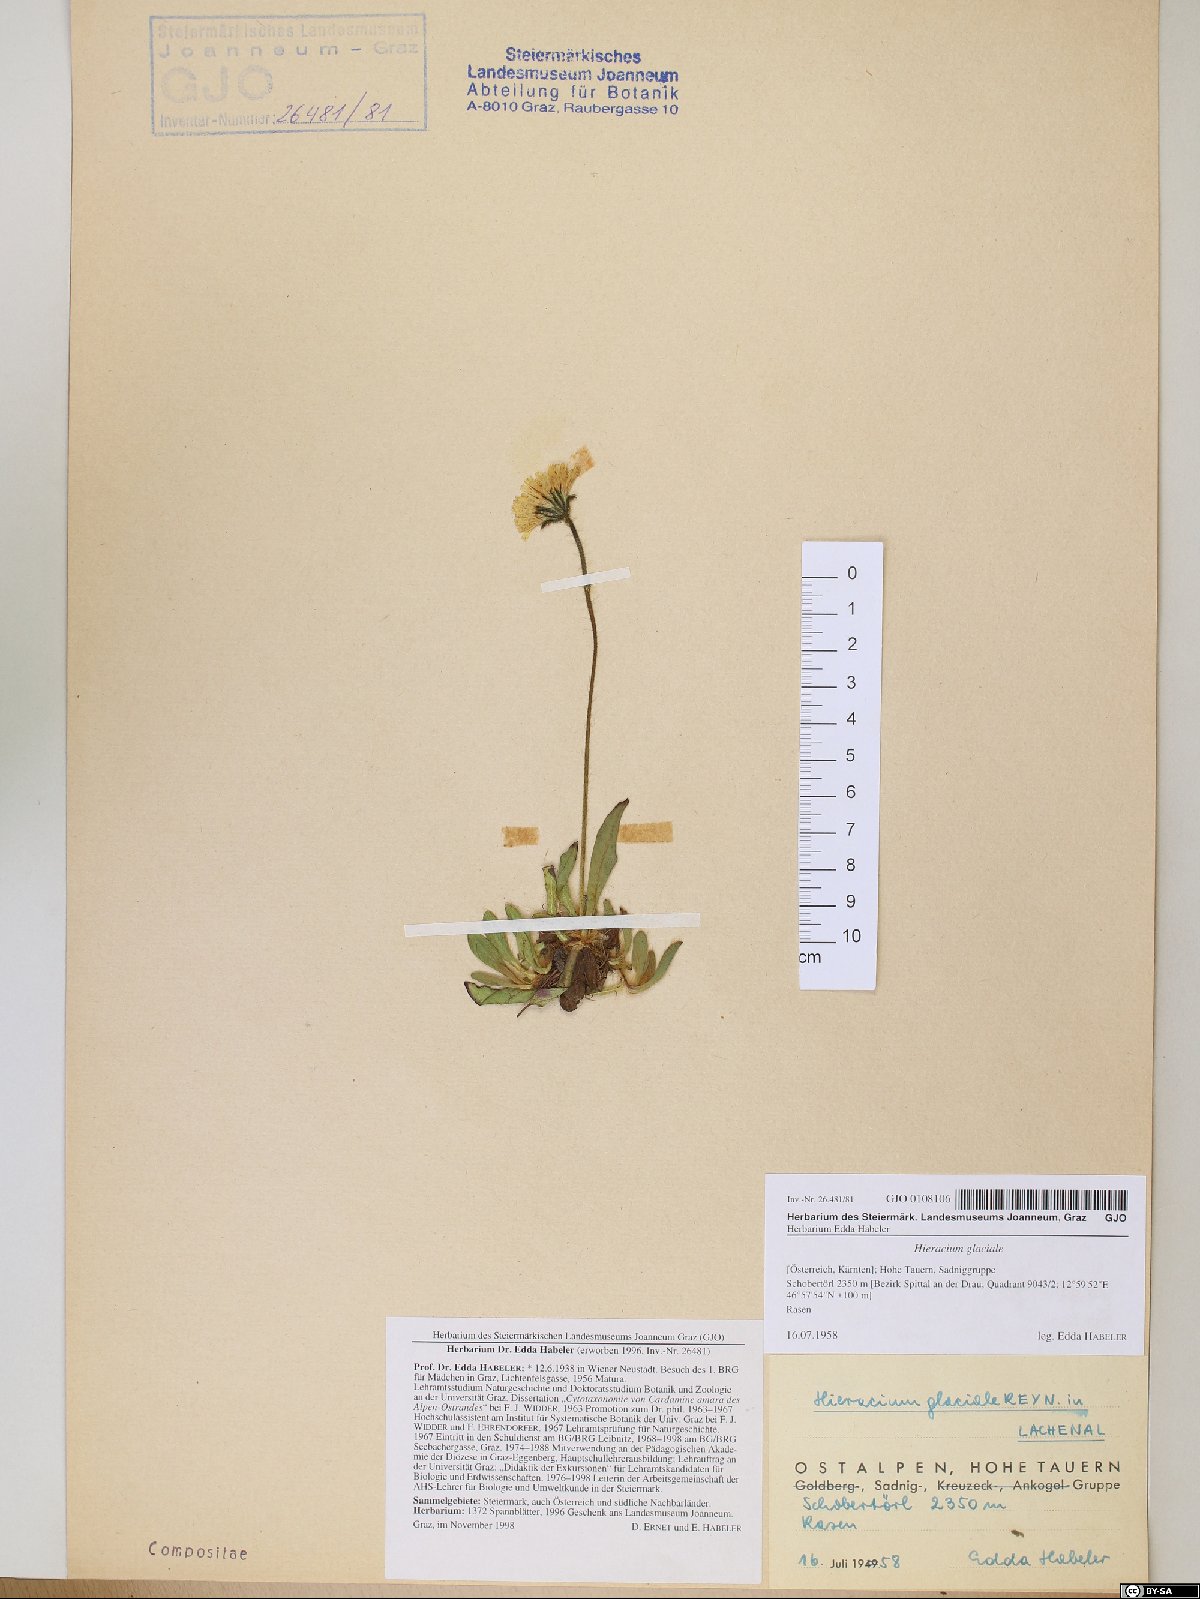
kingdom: Plantae
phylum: Tracheophyta
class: Magnoliopsida
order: Asterales
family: Asteraceae
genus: Pilosella
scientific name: Pilosella glacialis
